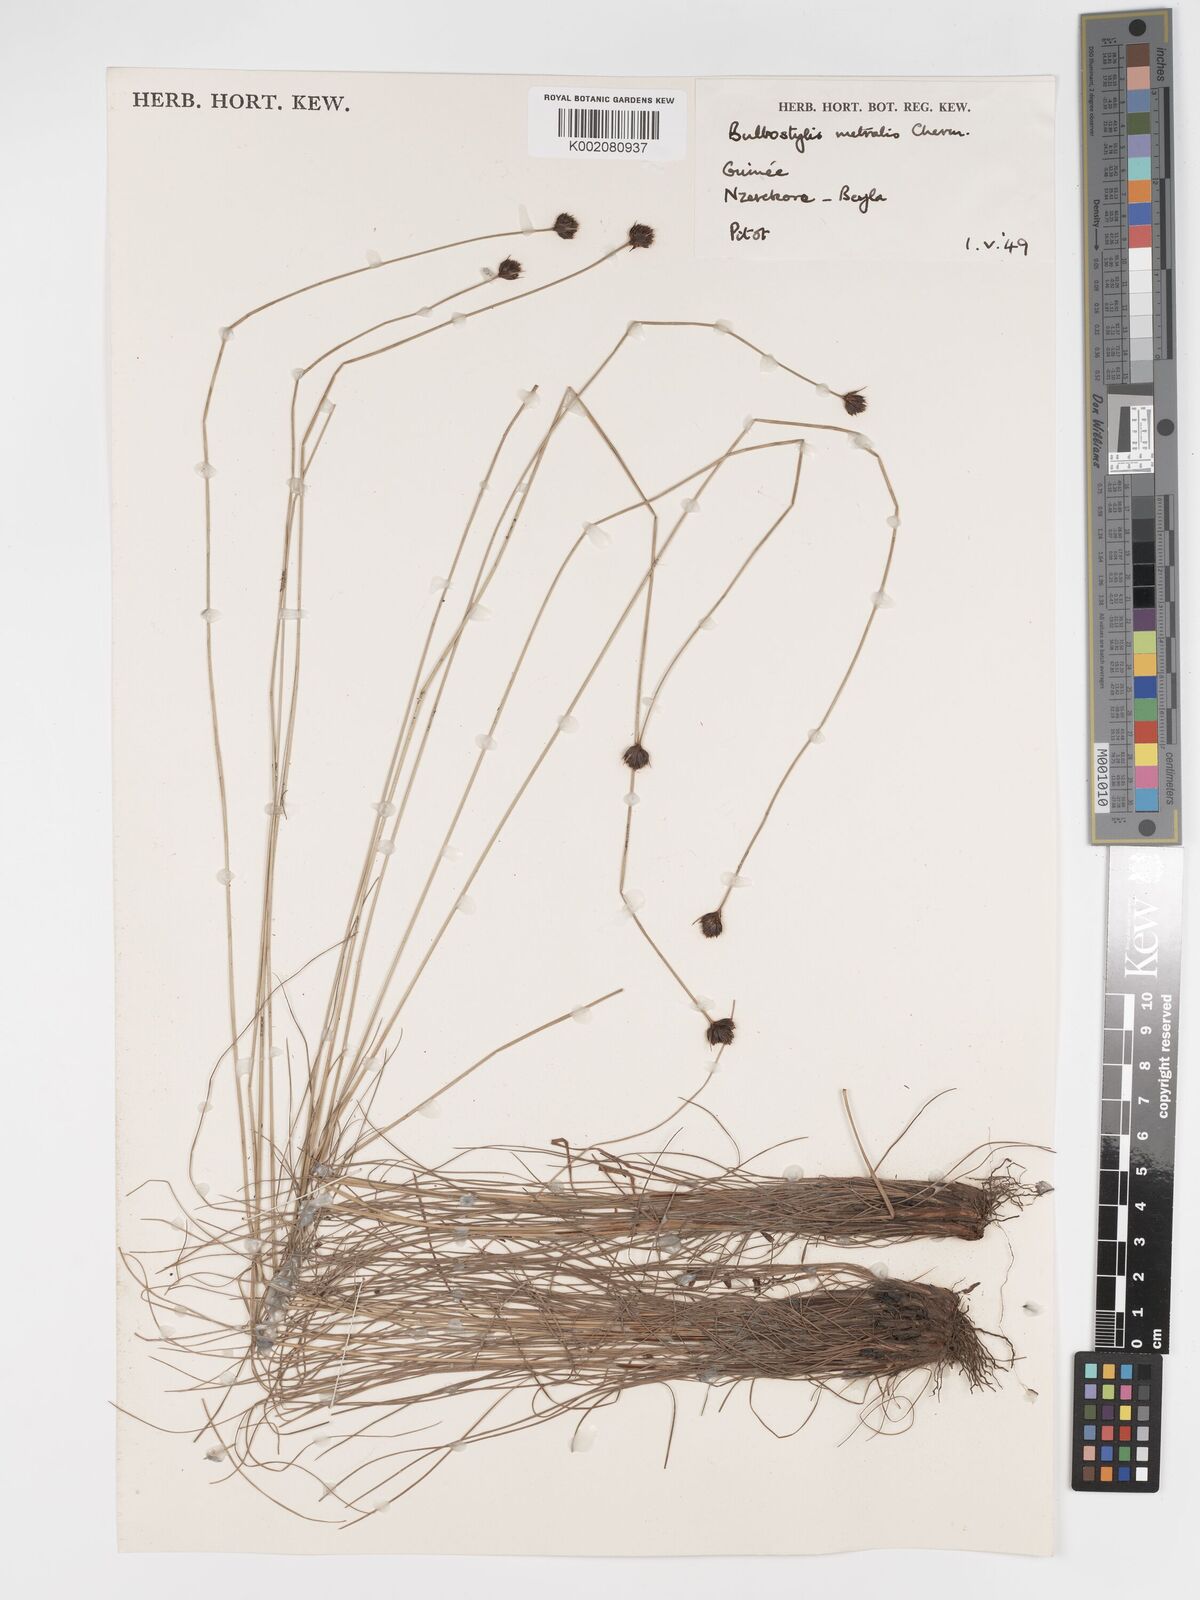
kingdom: Plantae
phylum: Tracheophyta
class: Liliopsida
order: Poales
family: Cyperaceae
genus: Bulbostylis
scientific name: Bulbostylis filamentosa
